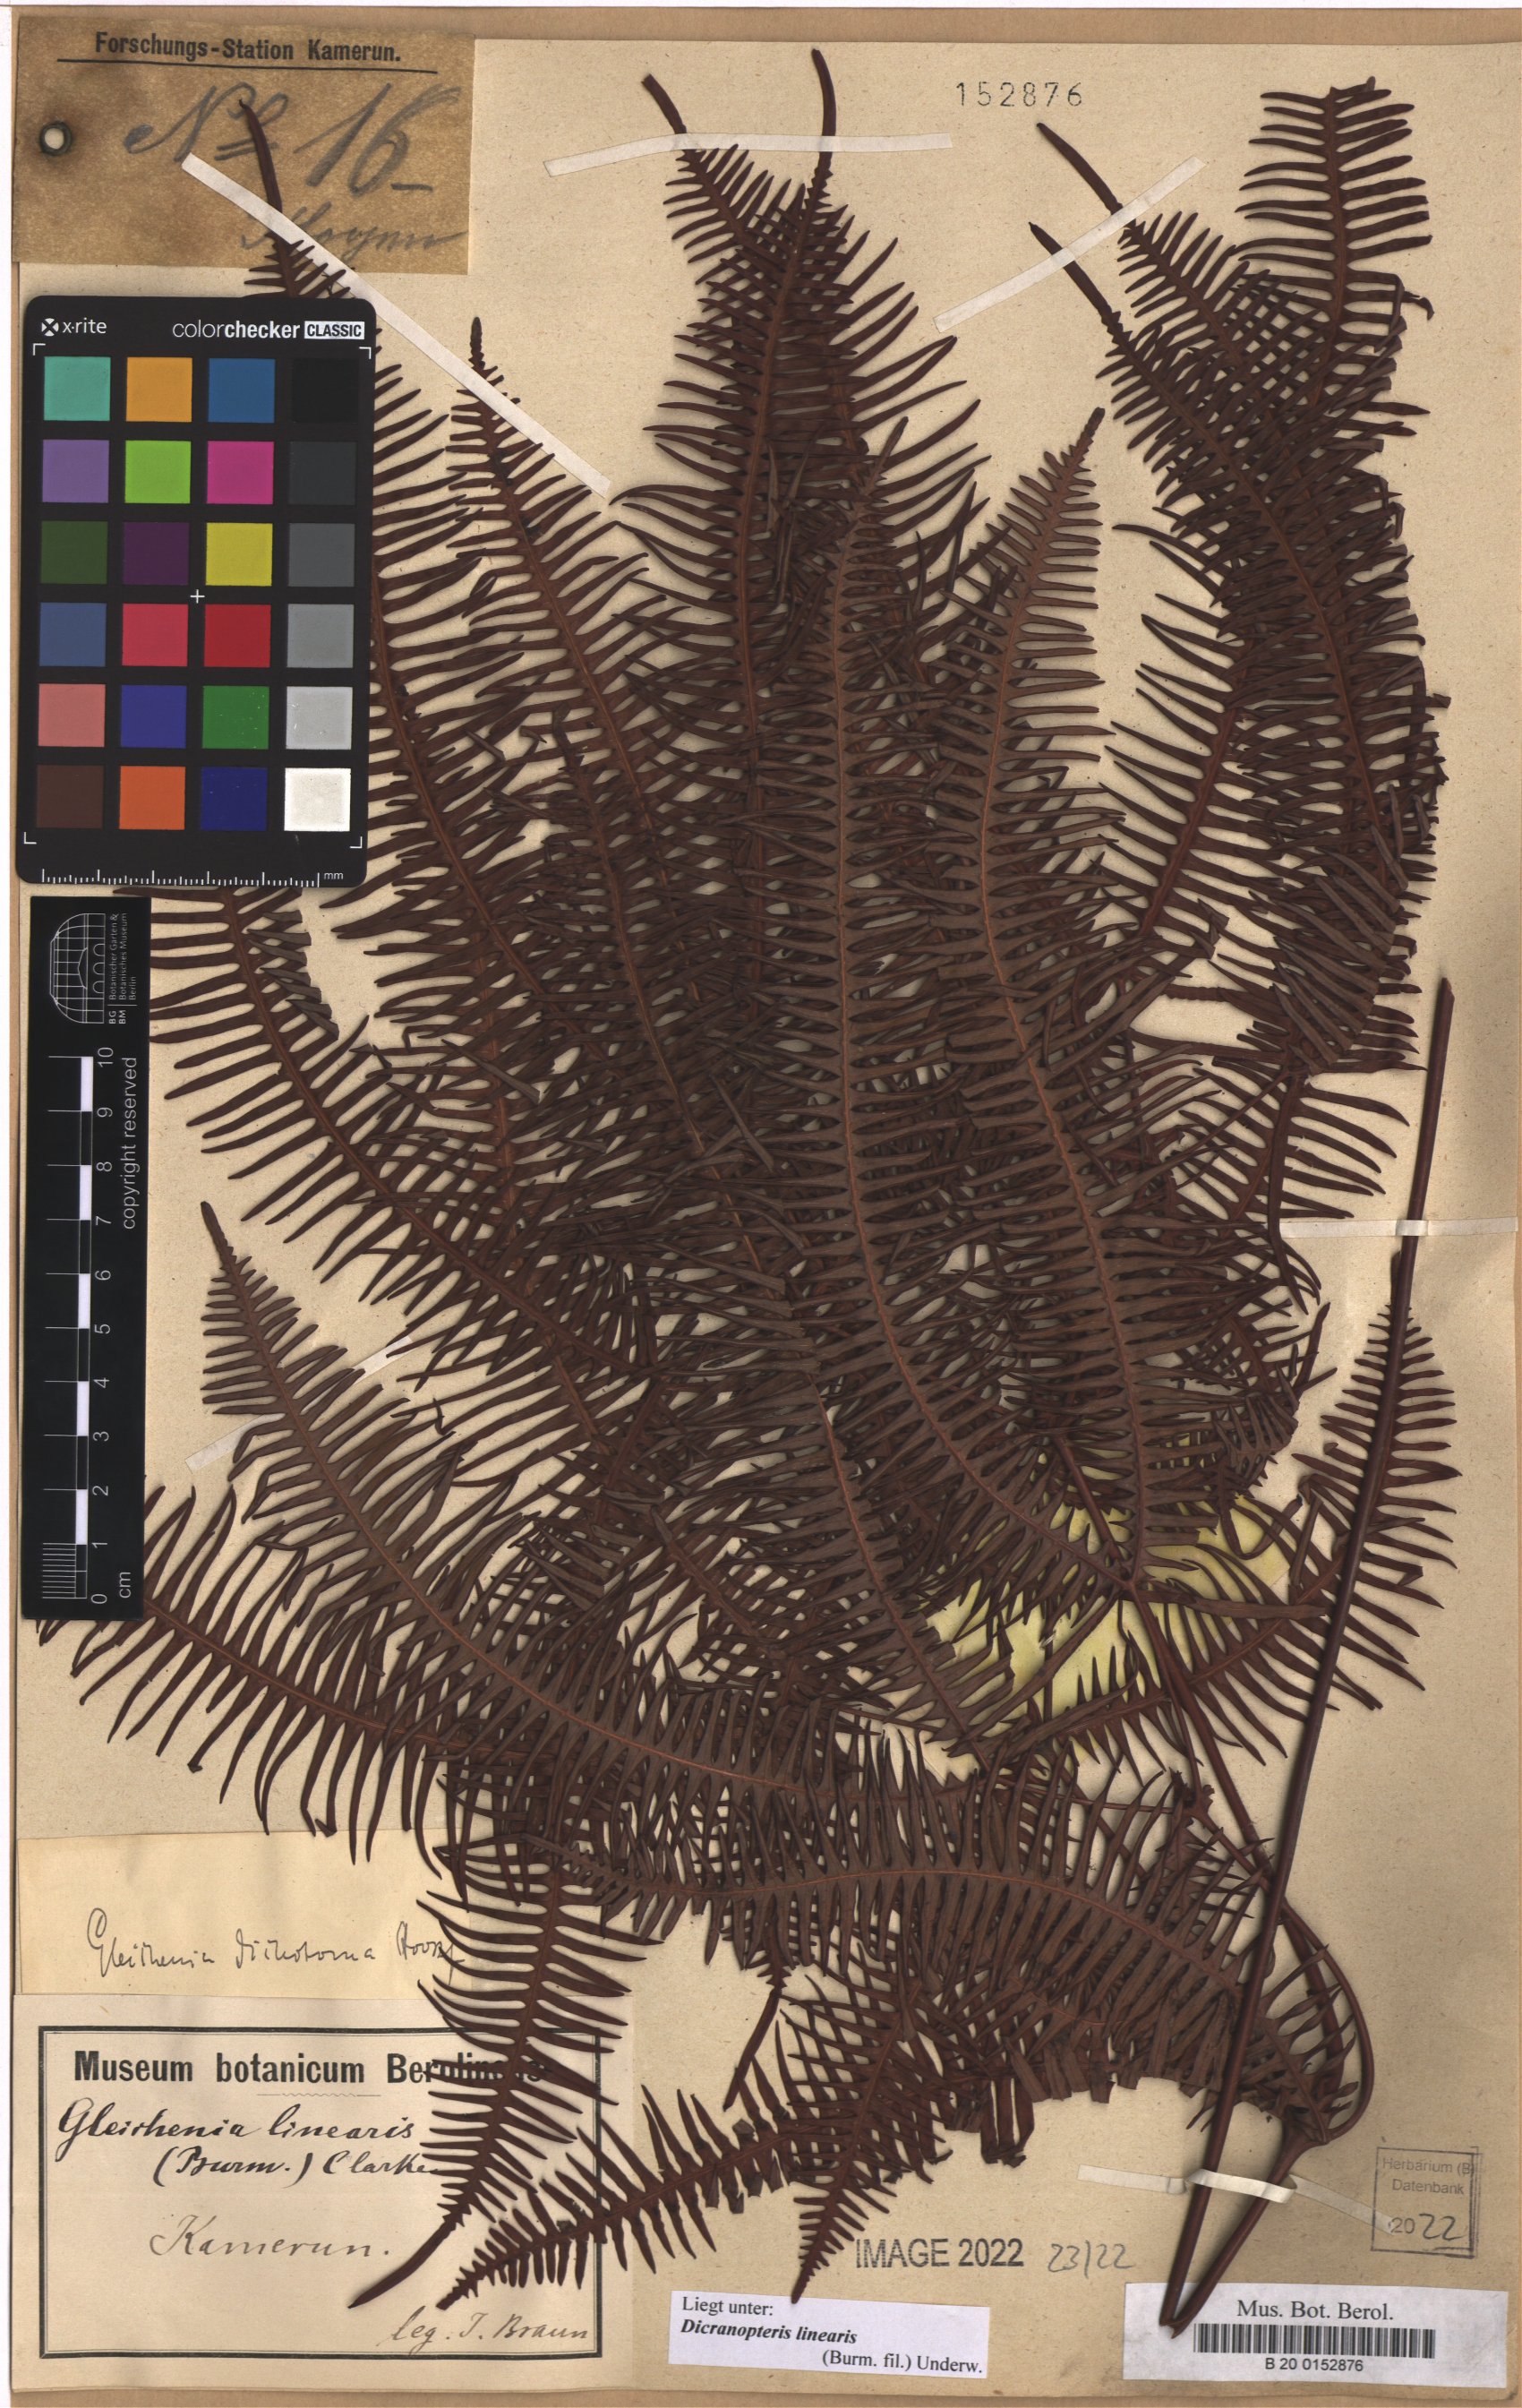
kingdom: Plantae
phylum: Tracheophyta
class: Polypodiopsida
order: Gleicheniales
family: Gleicheniaceae
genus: Dicranopteris
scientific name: Dicranopteris linearis
